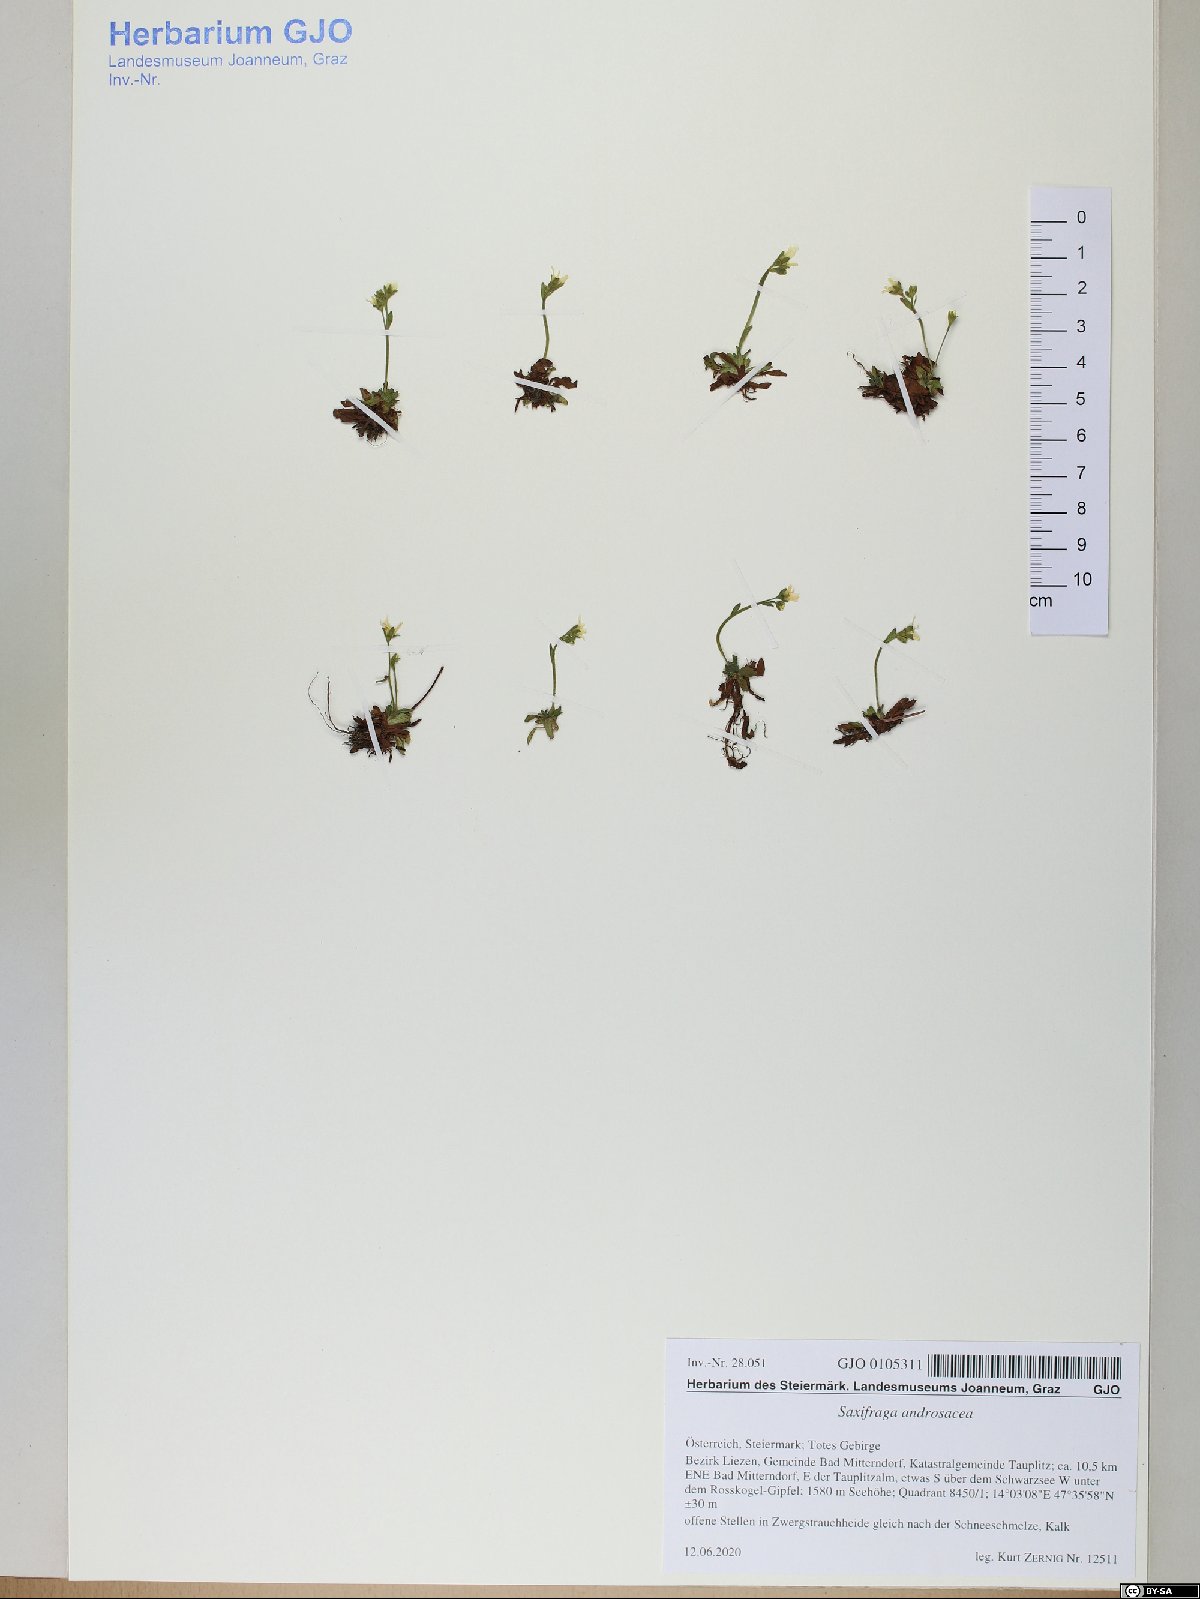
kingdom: Plantae
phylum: Tracheophyta
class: Magnoliopsida
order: Saxifragales
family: Saxifragaceae
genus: Saxifraga
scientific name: Saxifraga androsacea
